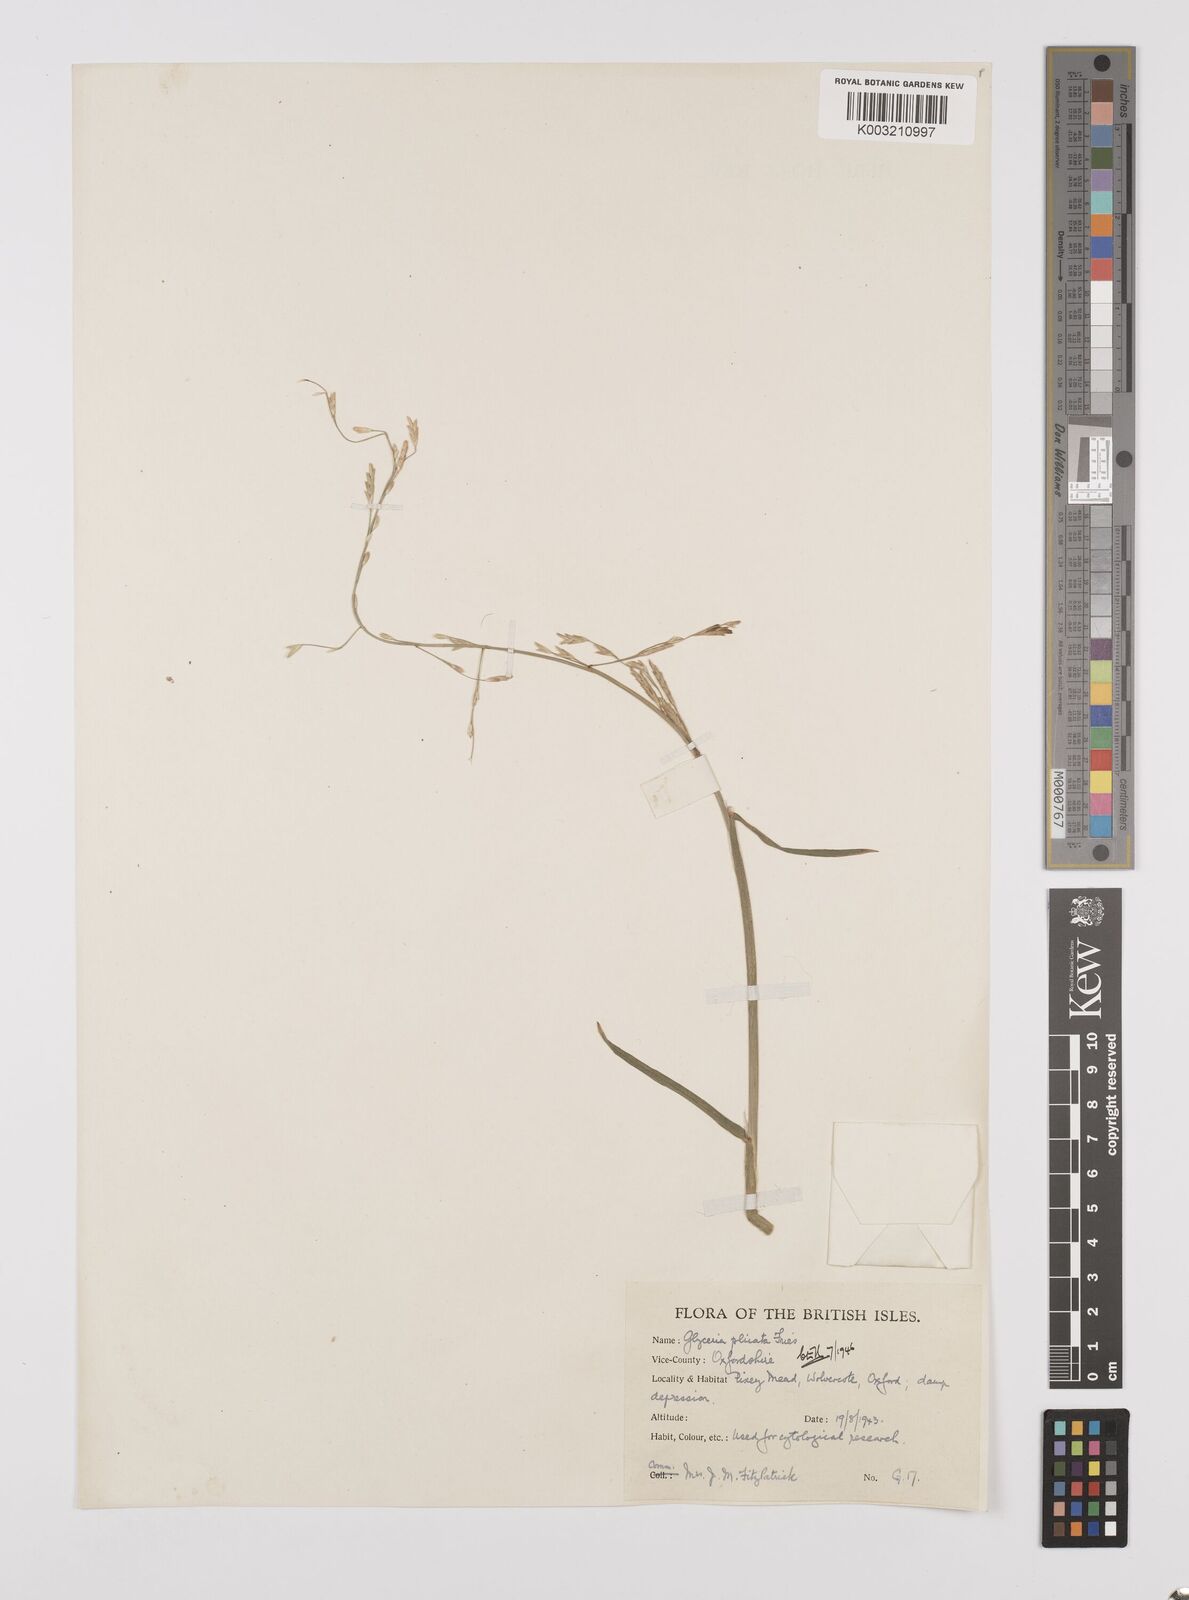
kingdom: Plantae
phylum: Tracheophyta
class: Liliopsida
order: Poales
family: Poaceae
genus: Glyceria
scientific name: Glyceria notata
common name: Plicate sweet-grass
